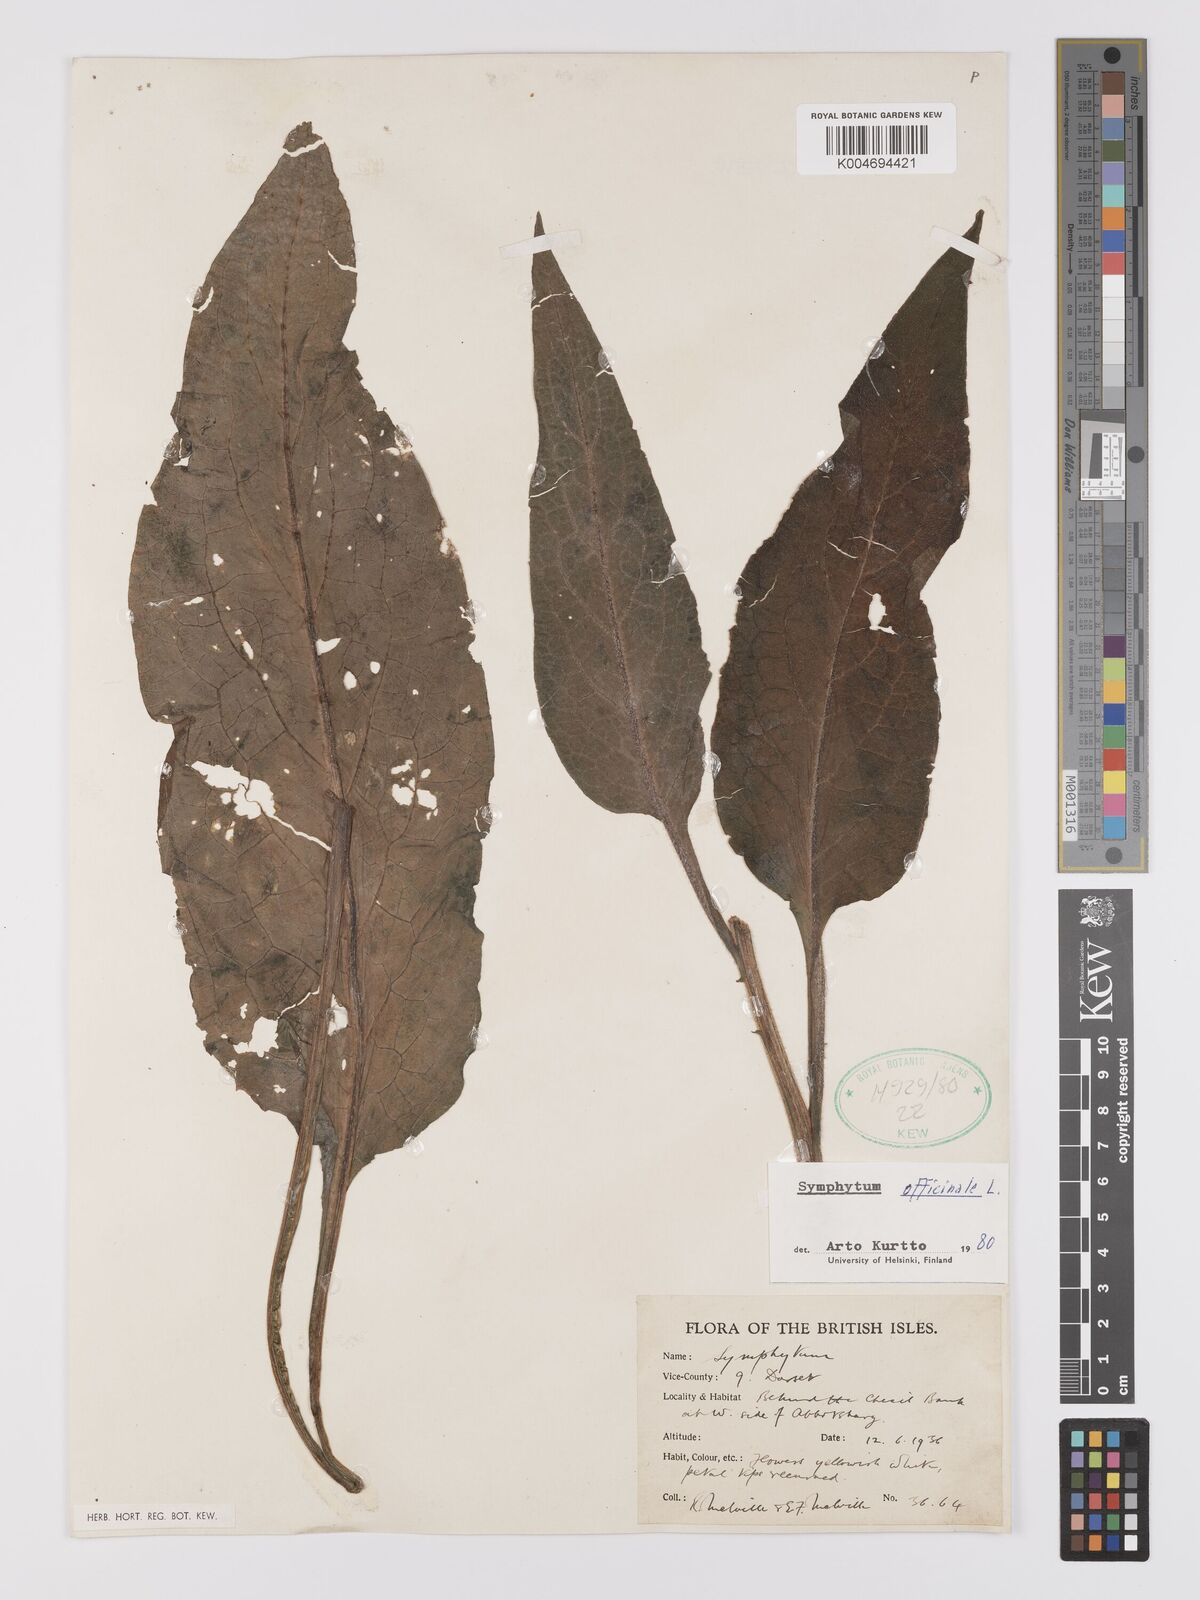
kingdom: Plantae
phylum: Tracheophyta
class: Magnoliopsida
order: Boraginales
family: Boraginaceae
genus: Symphytum
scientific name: Symphytum officinale
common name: Common comfrey
